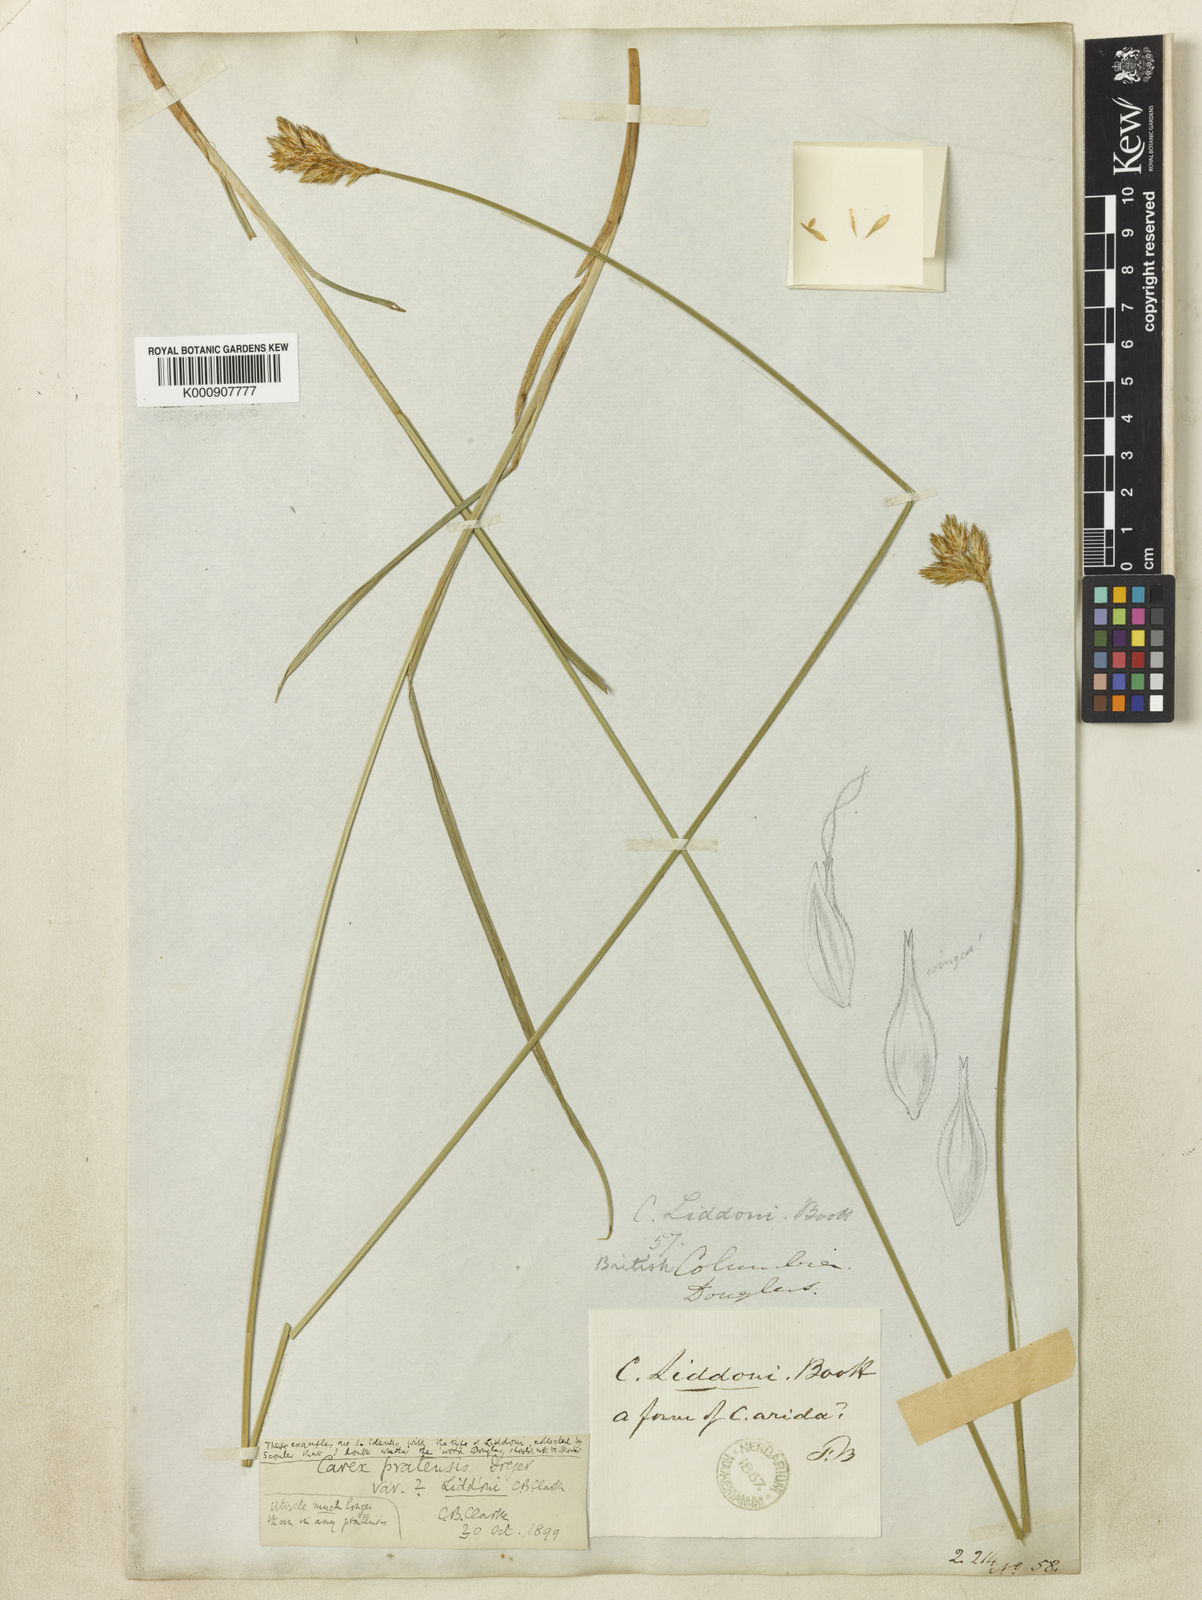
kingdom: Plantae
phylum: Tracheophyta
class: Liliopsida
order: Poales
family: Cyperaceae
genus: Carex
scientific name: Carex petasata
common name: Liddon's sedge
